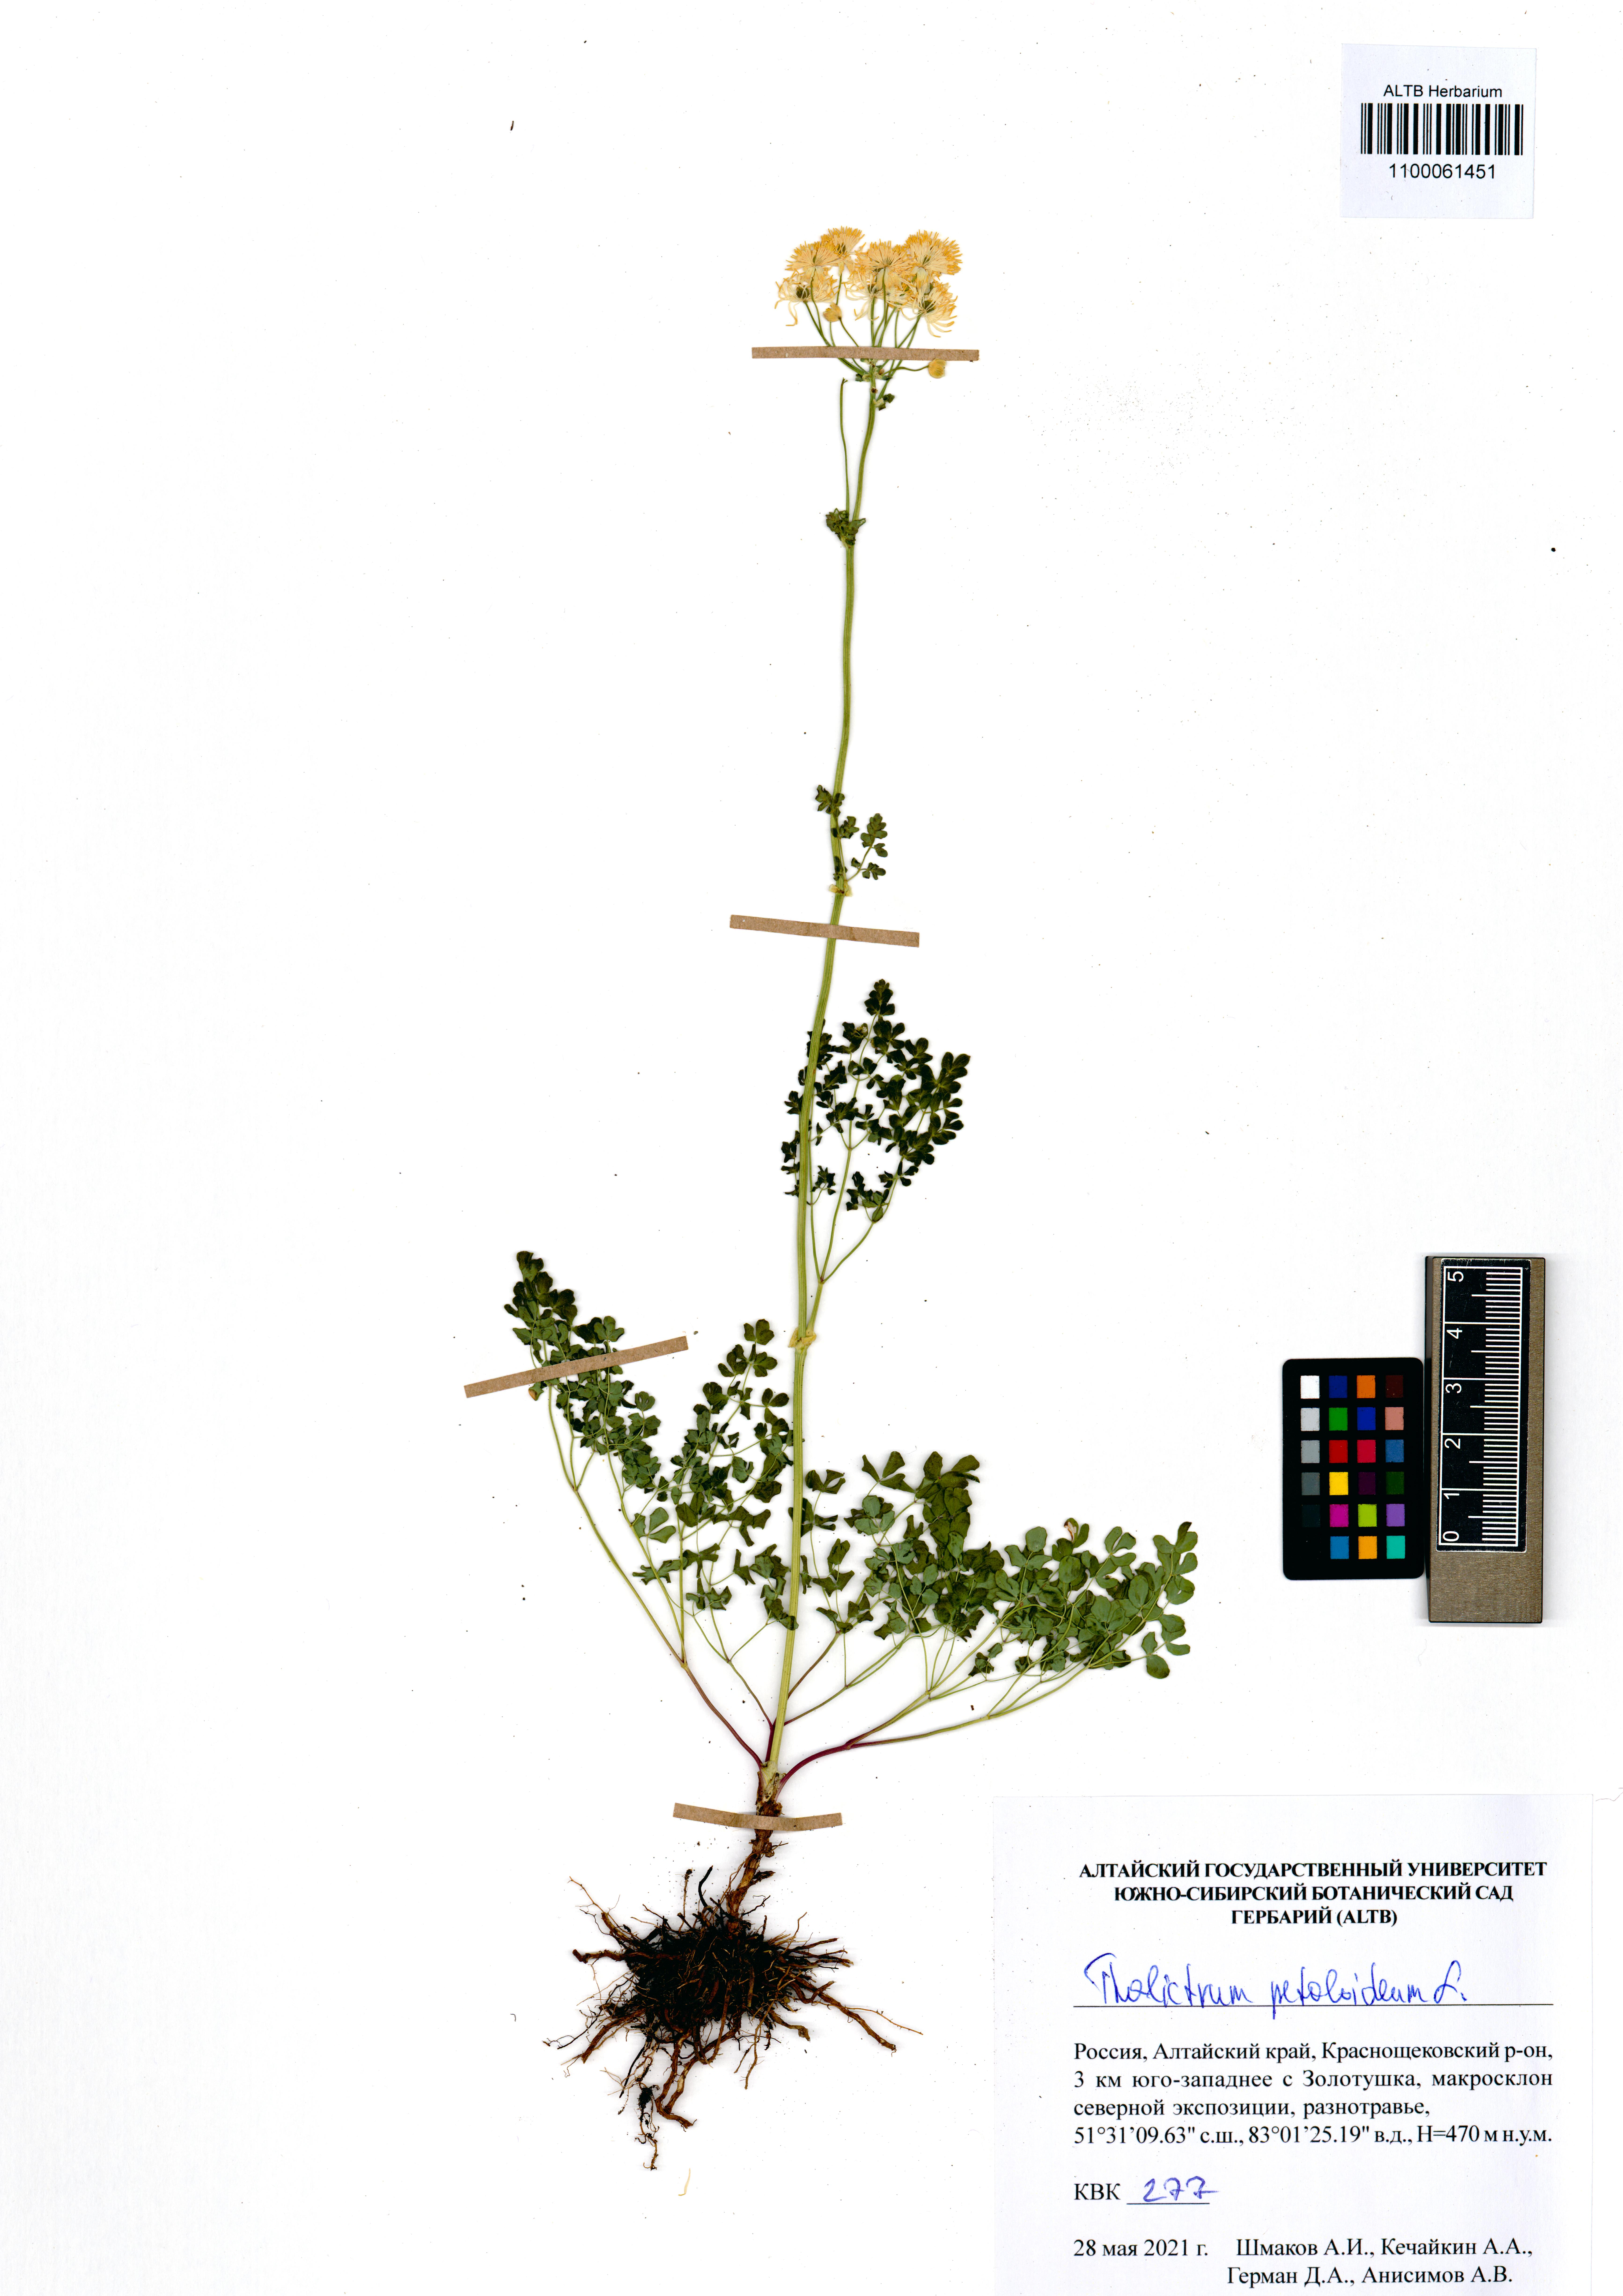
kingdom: Plantae
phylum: Tracheophyta
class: Magnoliopsida
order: Ranunculales
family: Ranunculaceae
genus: Thalictrum
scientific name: Thalictrum petaloideum
